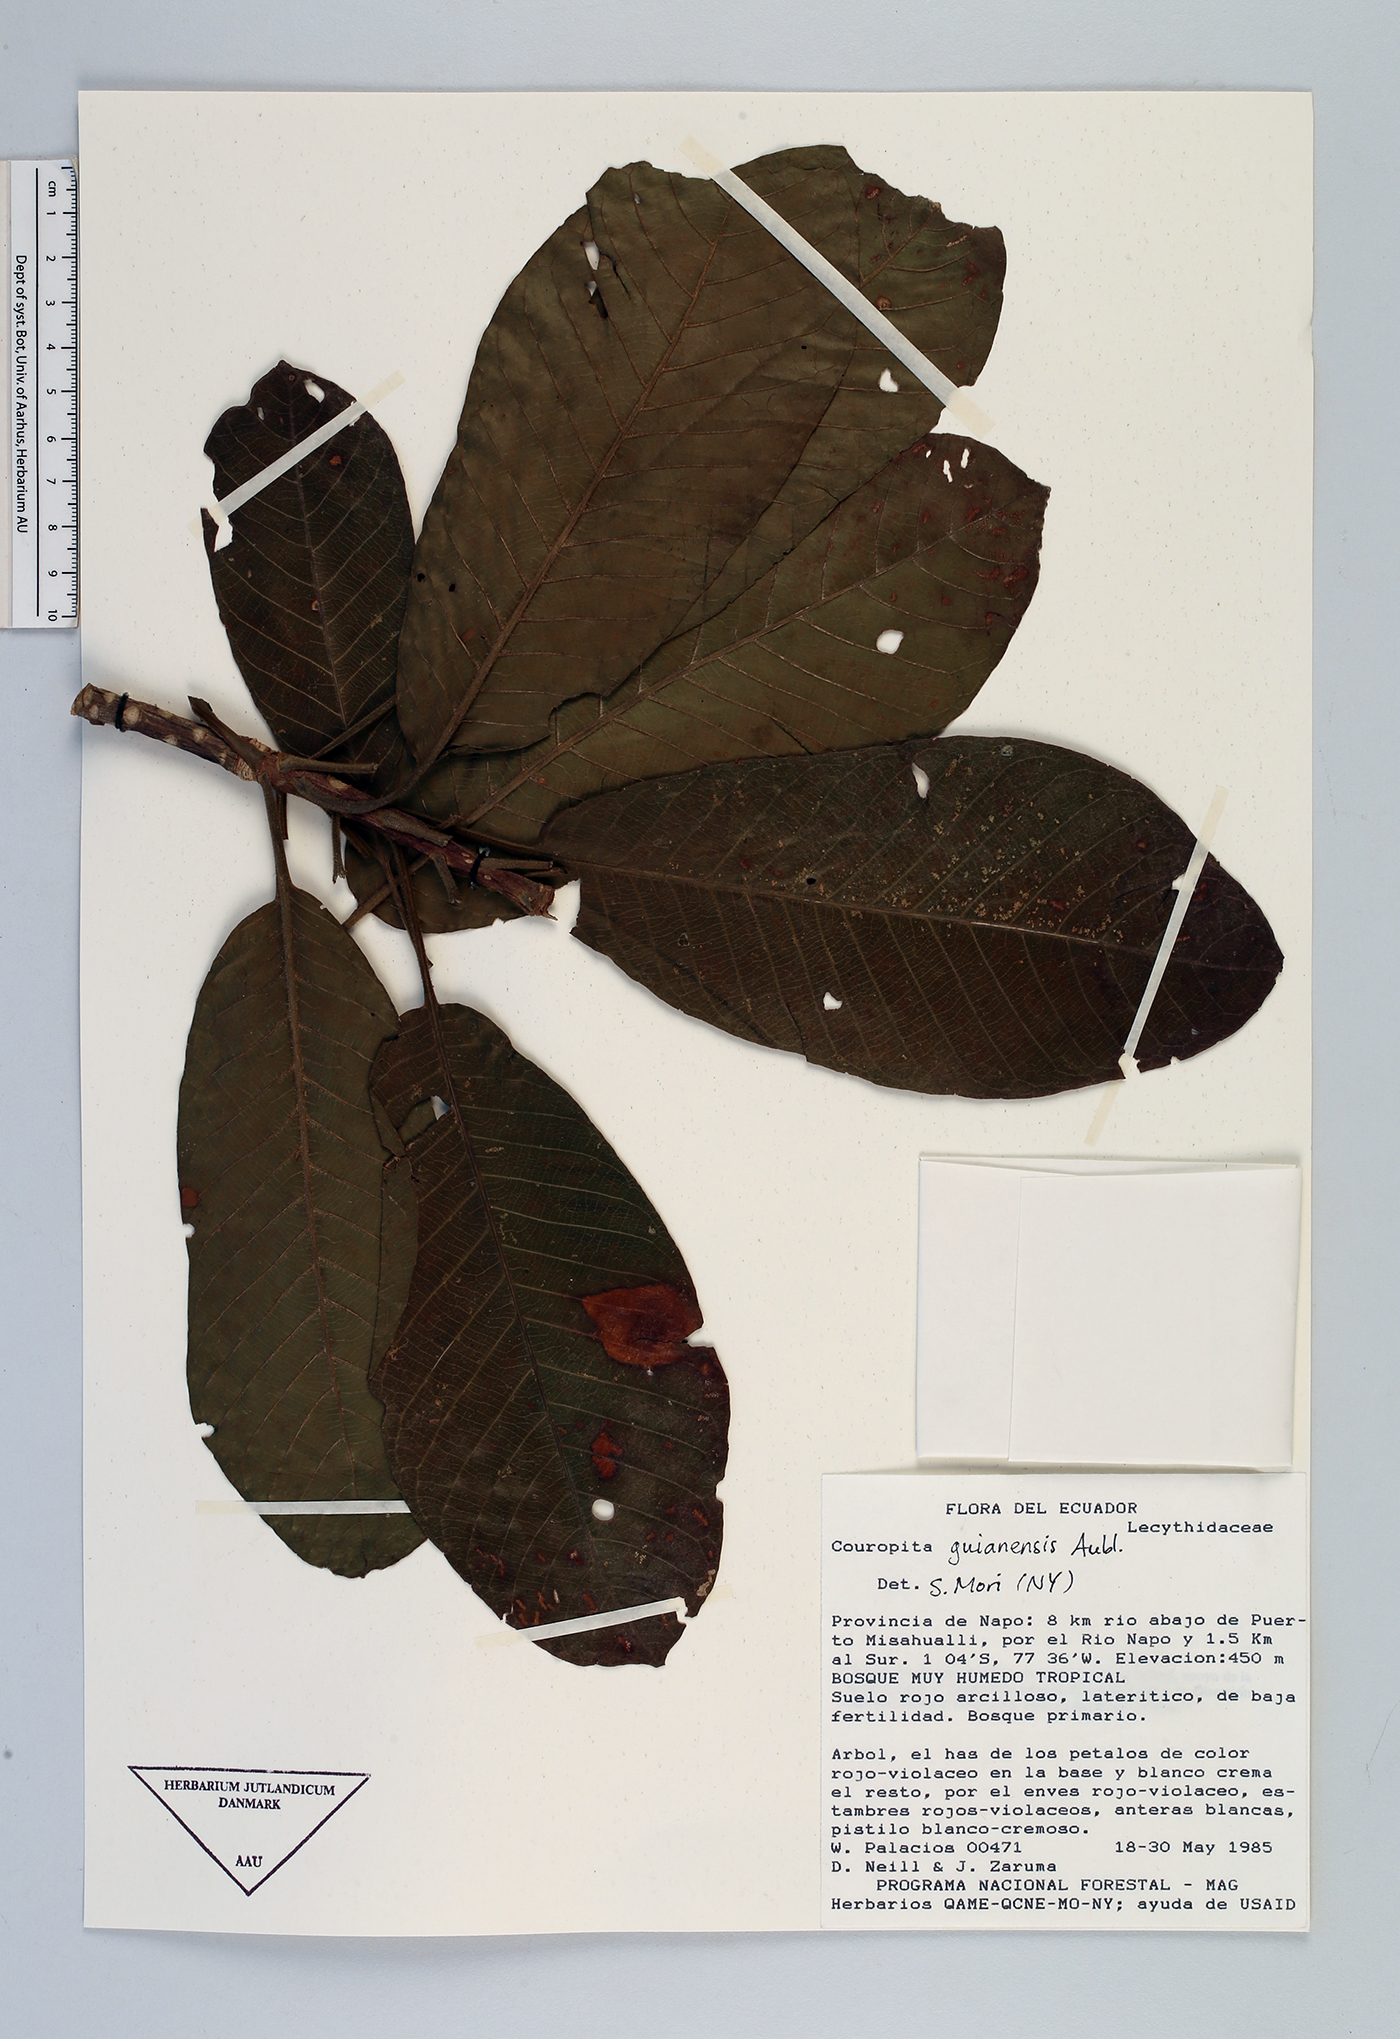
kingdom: Plantae
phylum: Tracheophyta
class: Magnoliopsida
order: Ericales
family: Lecythidaceae
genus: Couroupita
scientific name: Couroupita guianensis
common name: Cannonball tree
